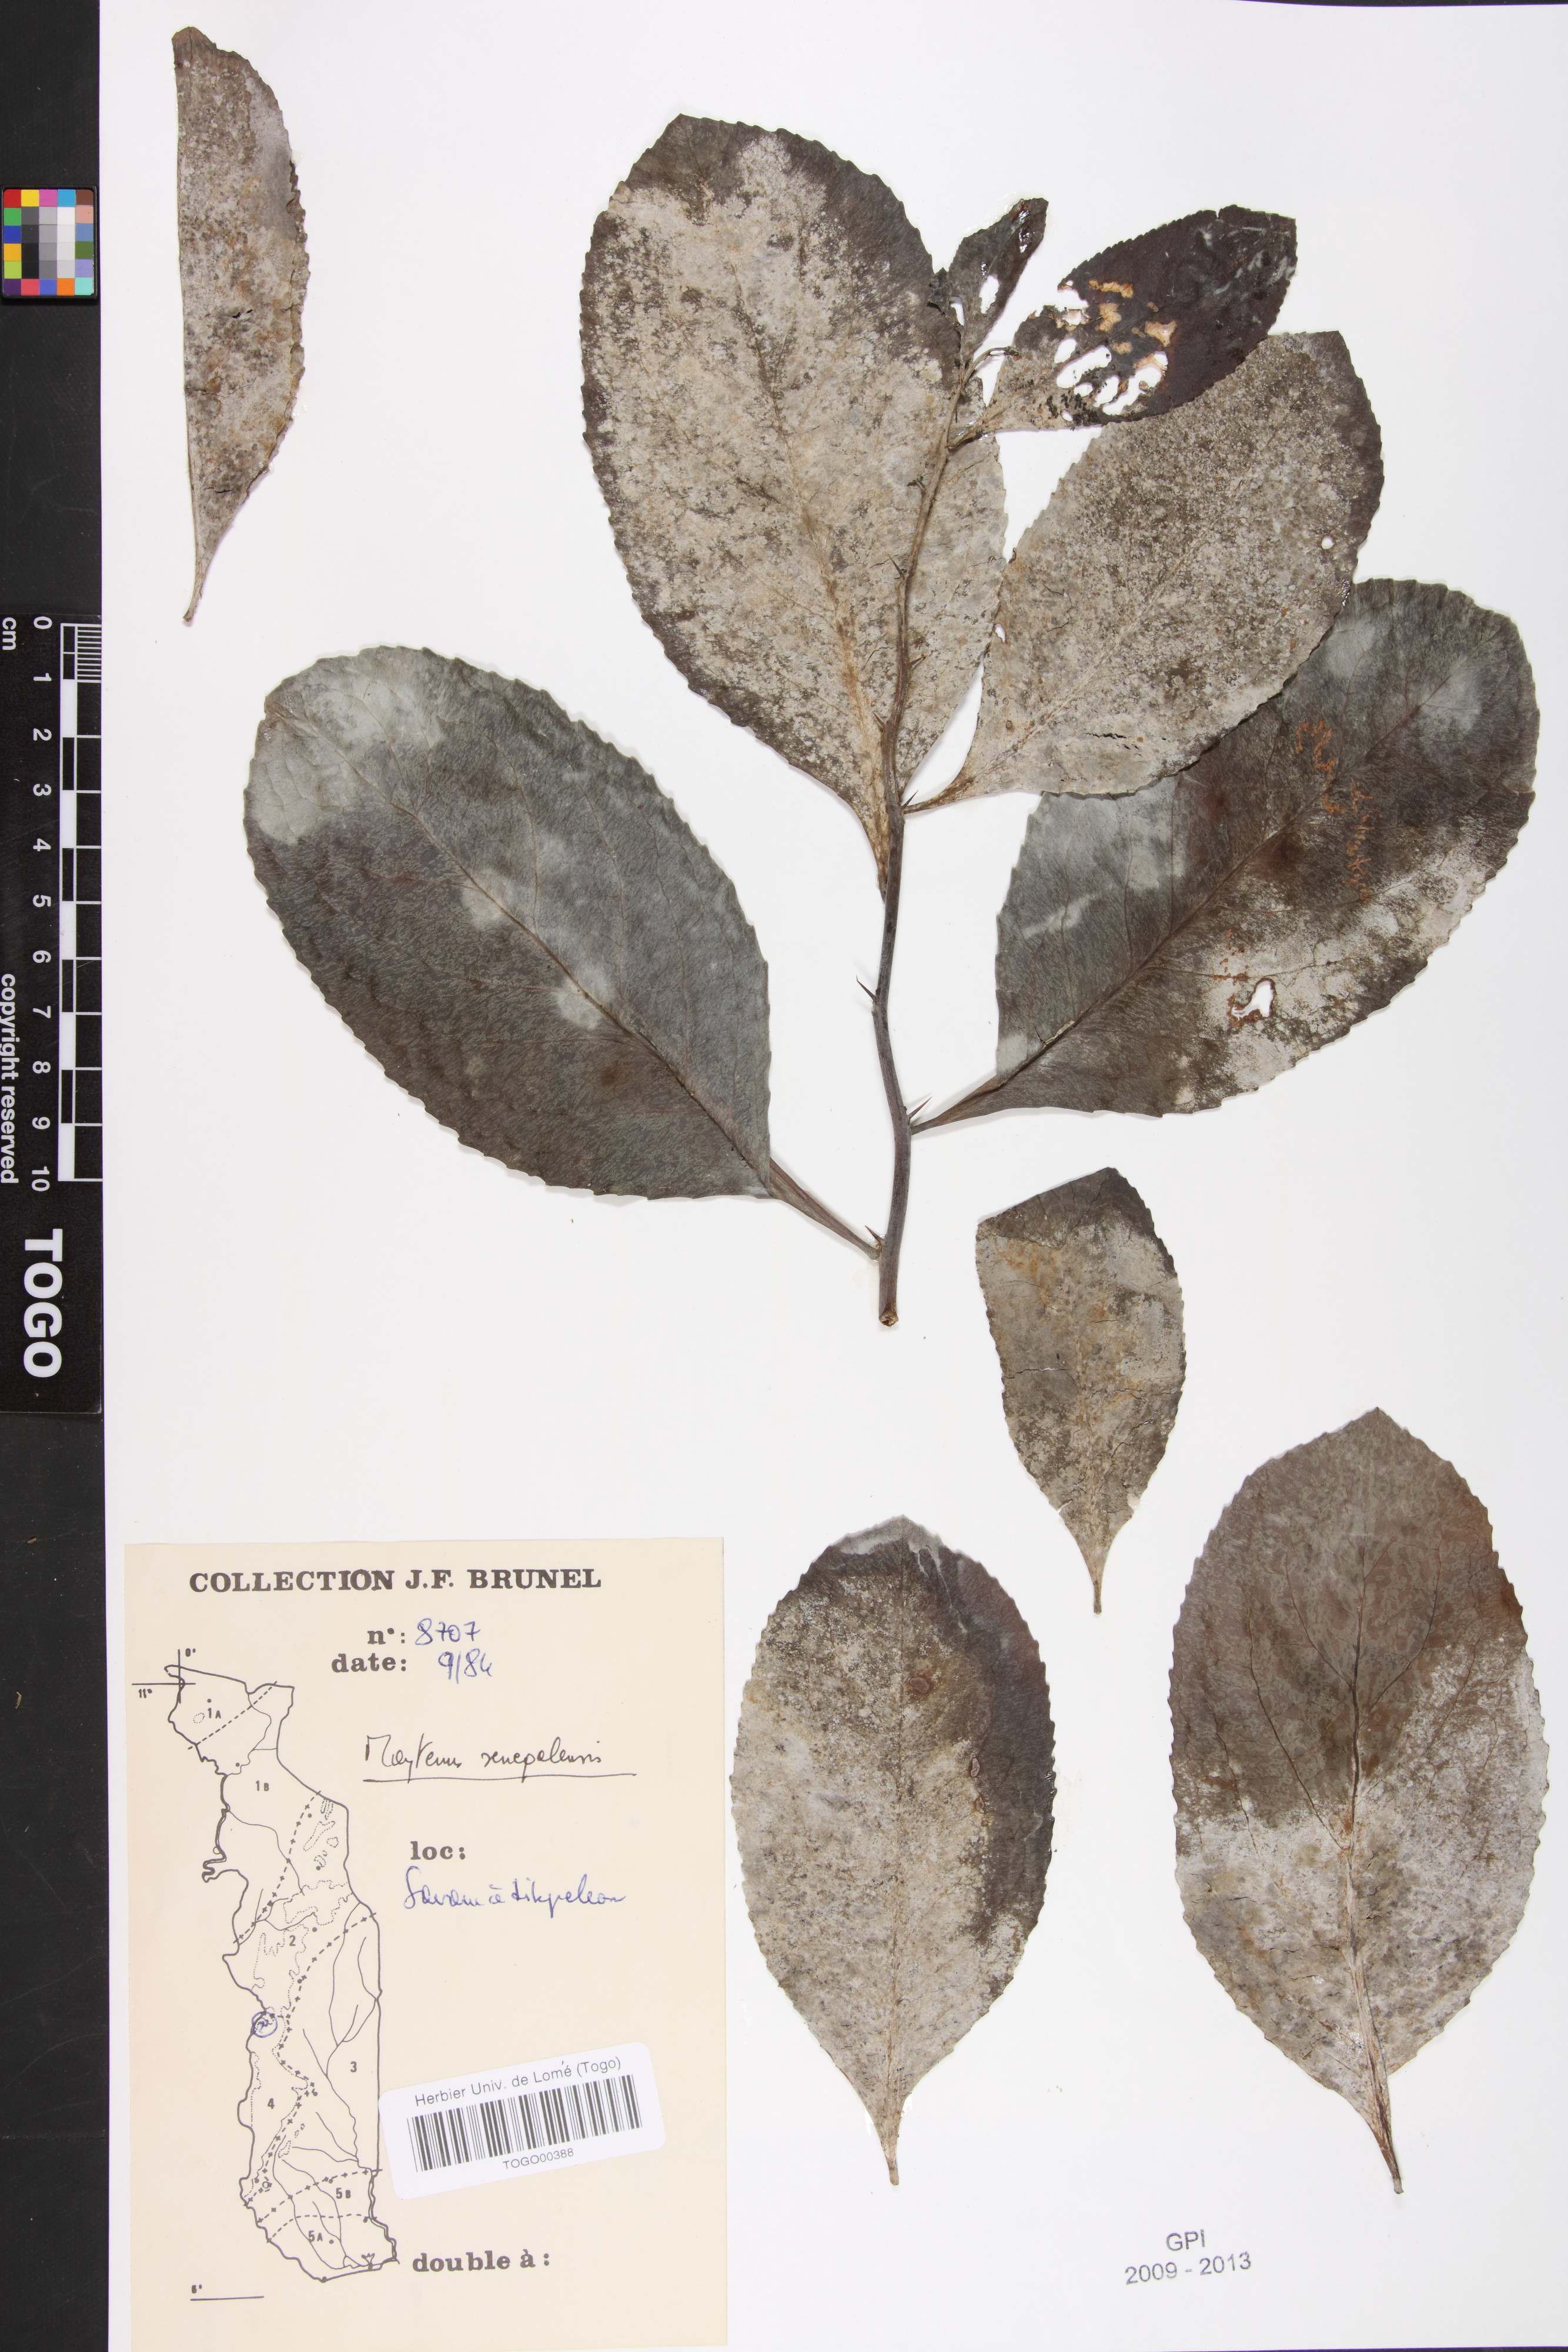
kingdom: Plantae
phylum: Tracheophyta
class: Magnoliopsida
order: Celastrales
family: Celastraceae
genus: Gymnosporia
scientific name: Gymnosporia senegalensis
